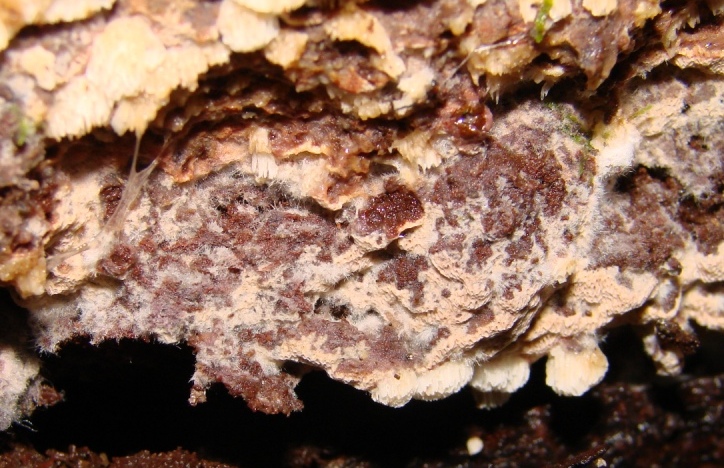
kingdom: Fungi
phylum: Basidiomycota
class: Agaricomycetes
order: Polyporales
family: Meripilaceae
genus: Rigidoporus
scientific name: Rigidoporus sanguinolentus
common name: blod-skorpeporesvamp
